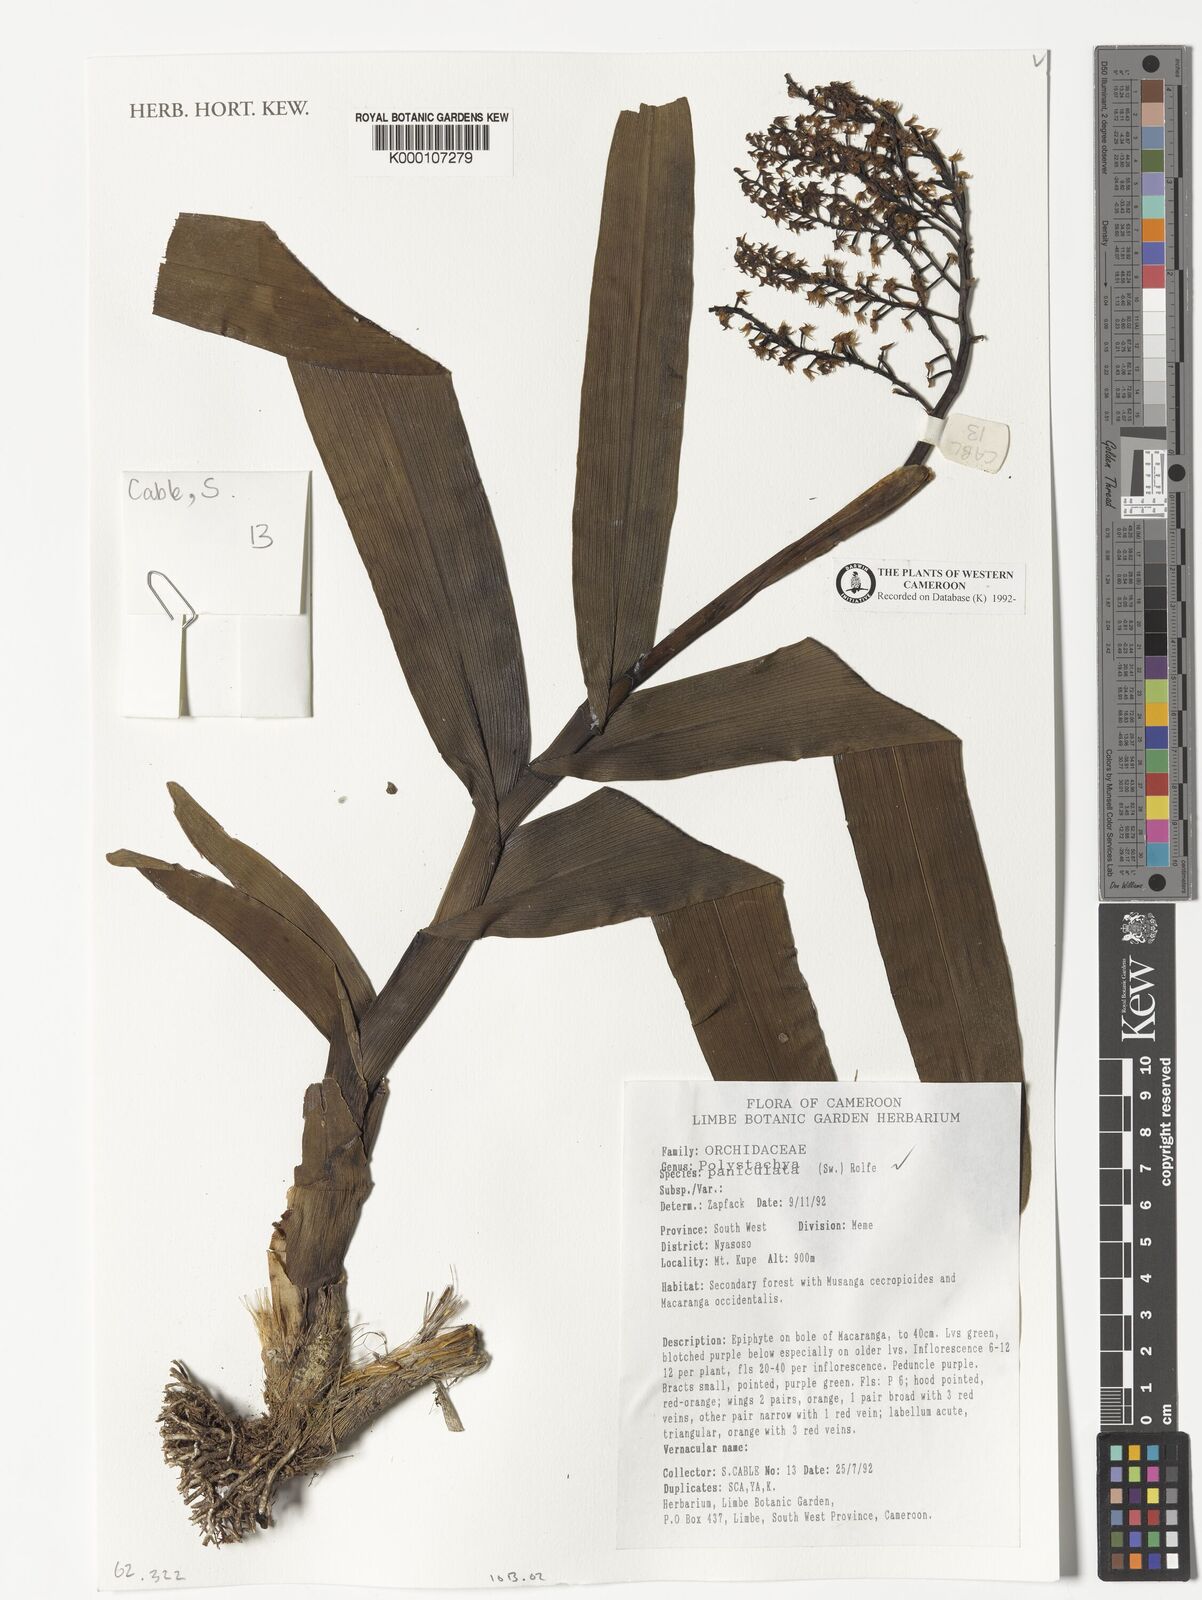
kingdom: Plantae
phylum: Tracheophyta
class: Liliopsida
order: Asparagales
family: Orchidaceae
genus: Polystachya
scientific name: Polystachya paniculata
